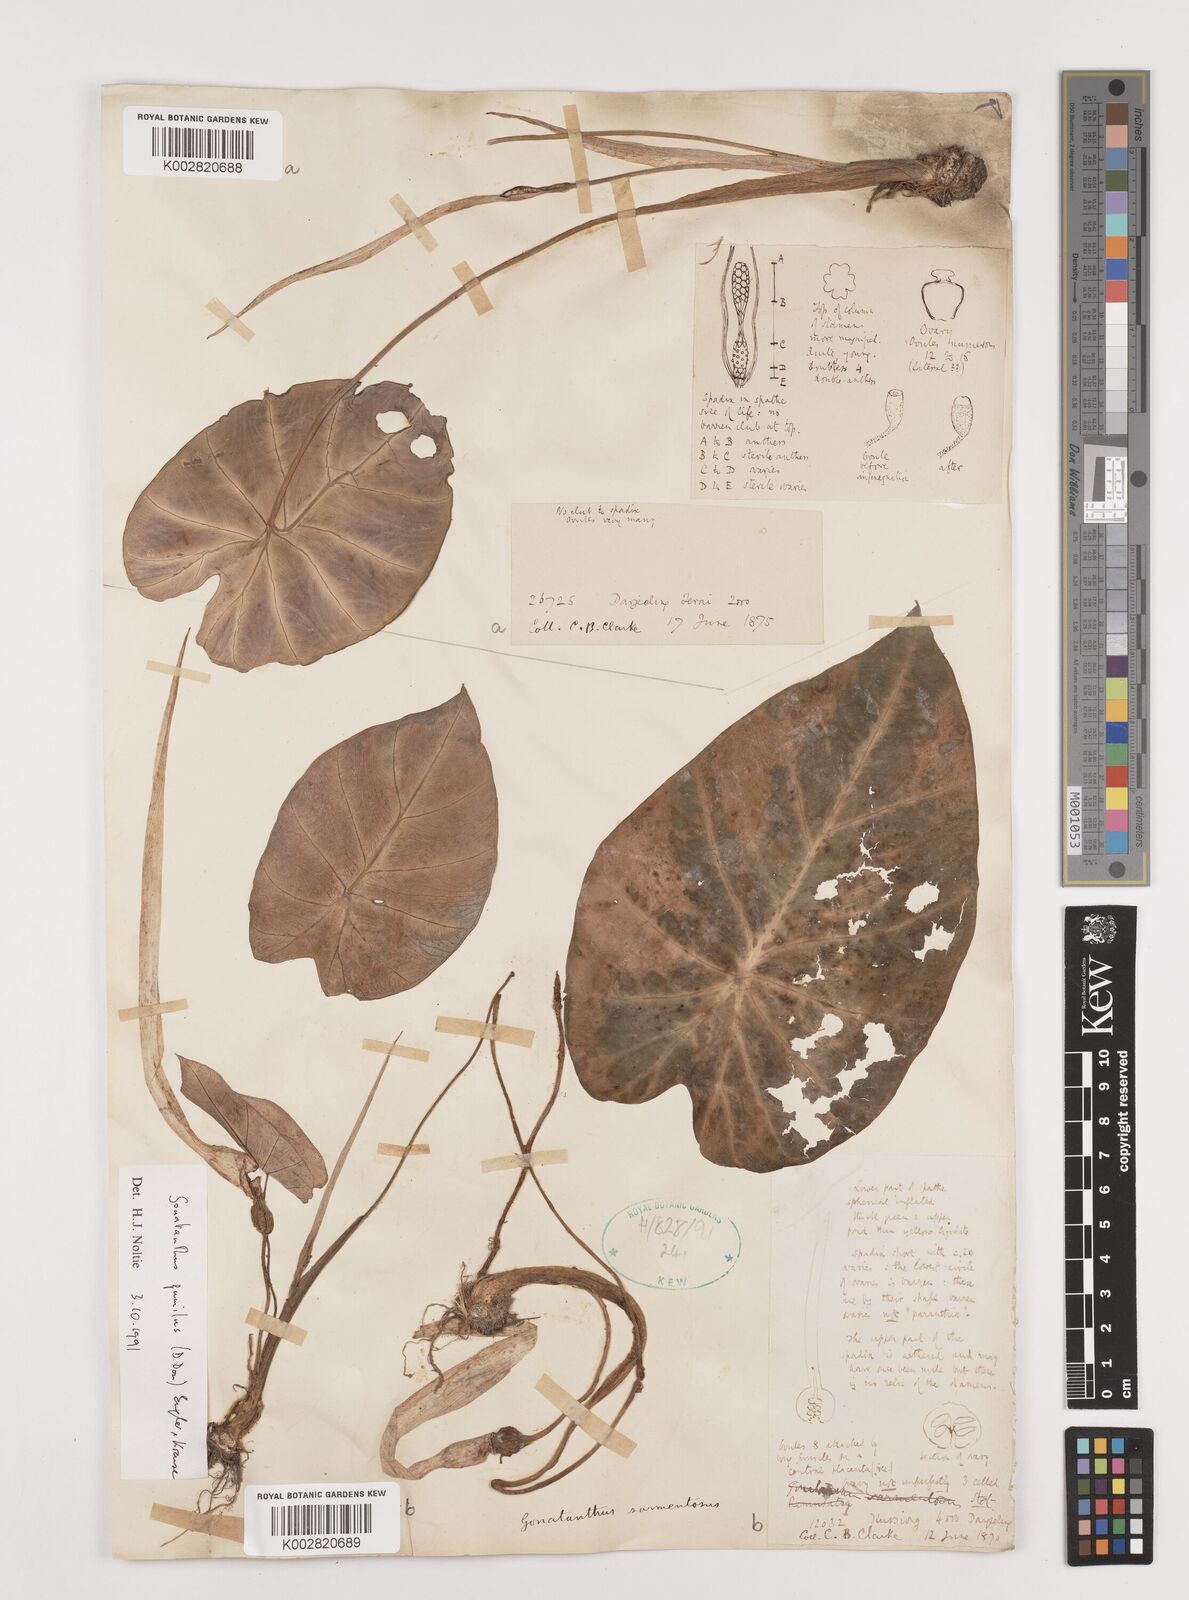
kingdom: Plantae
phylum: Tracheophyta
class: Liliopsida
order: Alismatales
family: Araceae
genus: Remusatia
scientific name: Remusatia pumila
